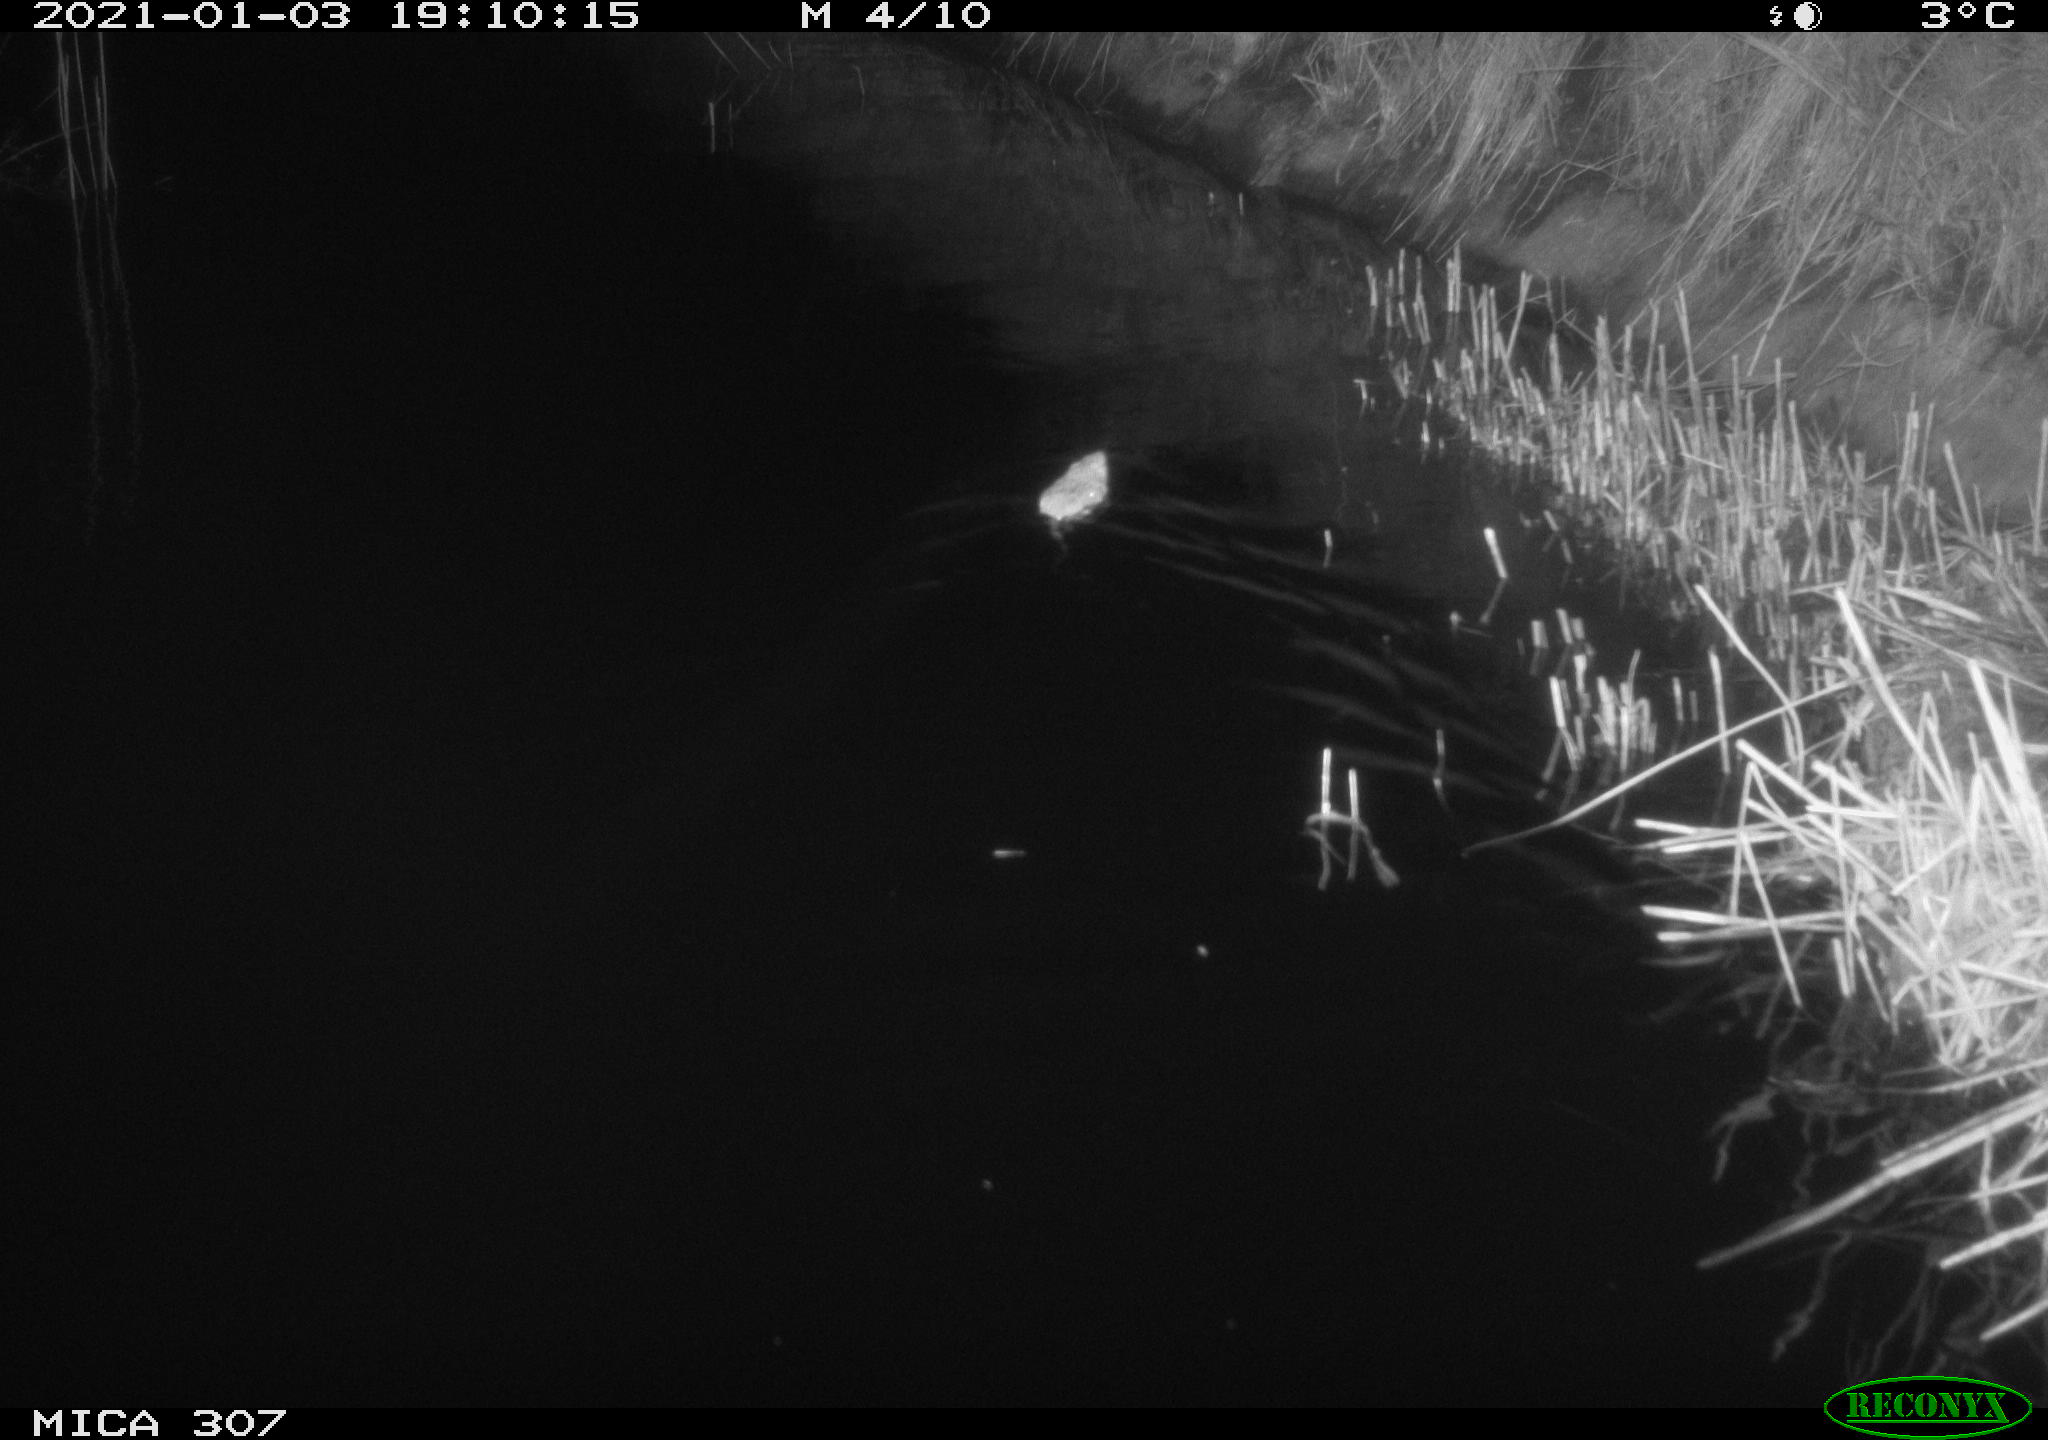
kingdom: Animalia
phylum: Chordata
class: Mammalia
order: Rodentia
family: Muridae
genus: Rattus
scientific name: Rattus norvegicus
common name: Brown rat
